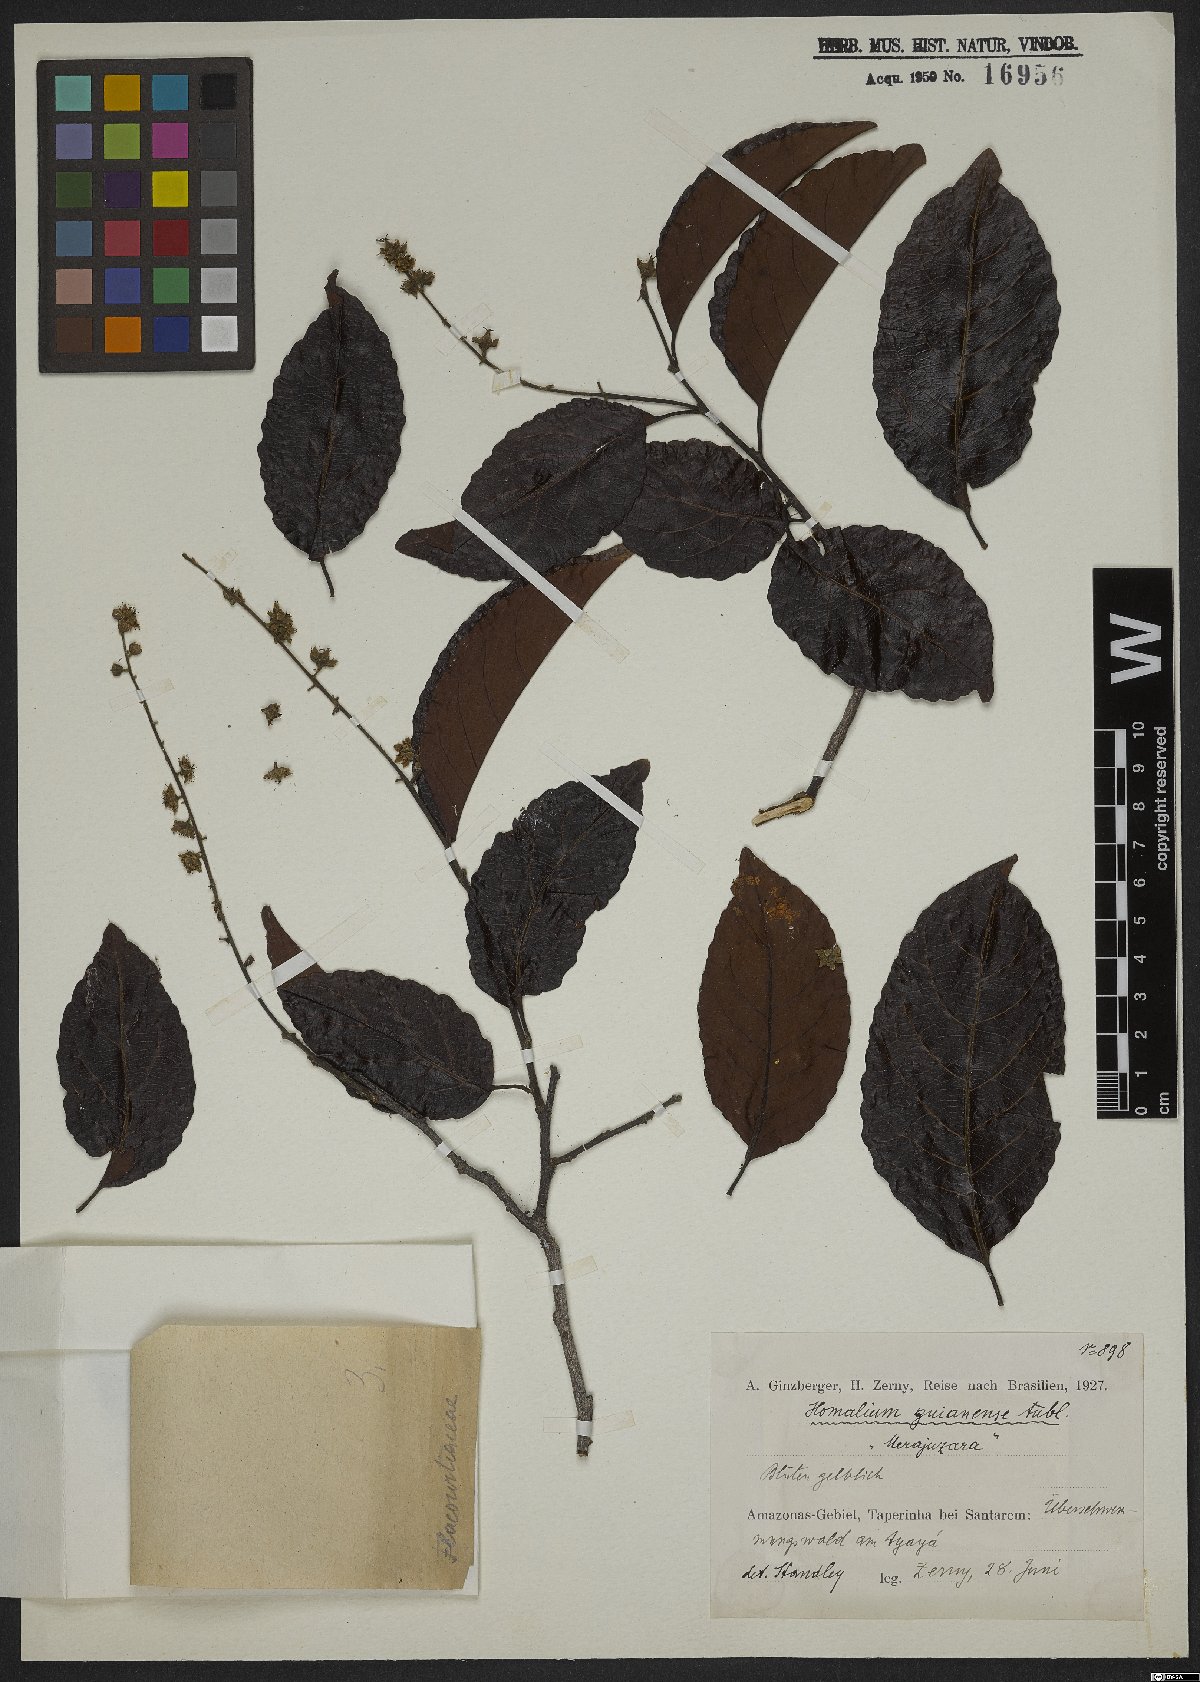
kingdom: Plantae
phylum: Tracheophyta
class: Magnoliopsida
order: Malpighiales
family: Salicaceae
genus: Homalium
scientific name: Homalium guianense
